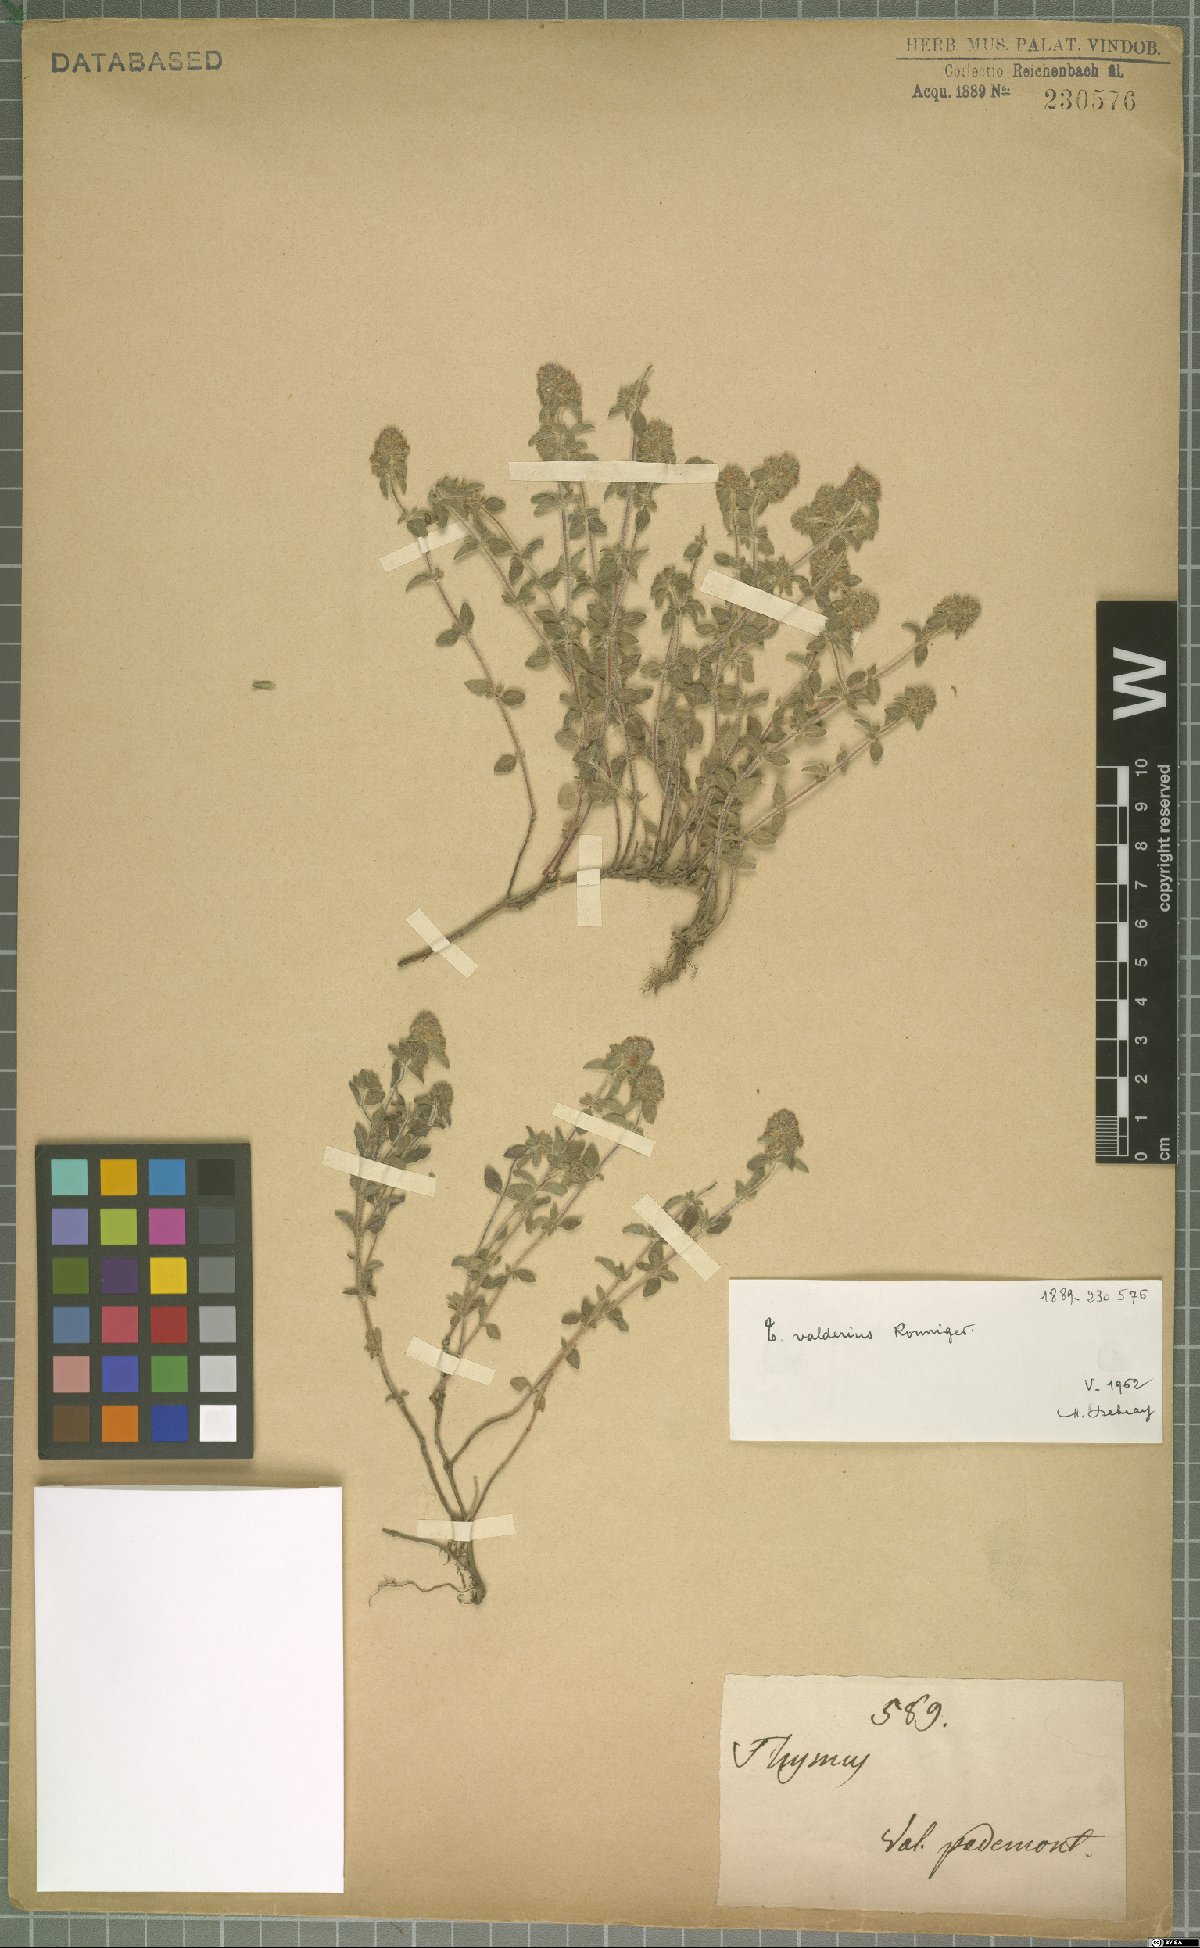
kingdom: Plantae
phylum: Tracheophyta
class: Magnoliopsida
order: Lamiales
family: Lamiaceae
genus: Thymus
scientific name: Thymus pannonicus
